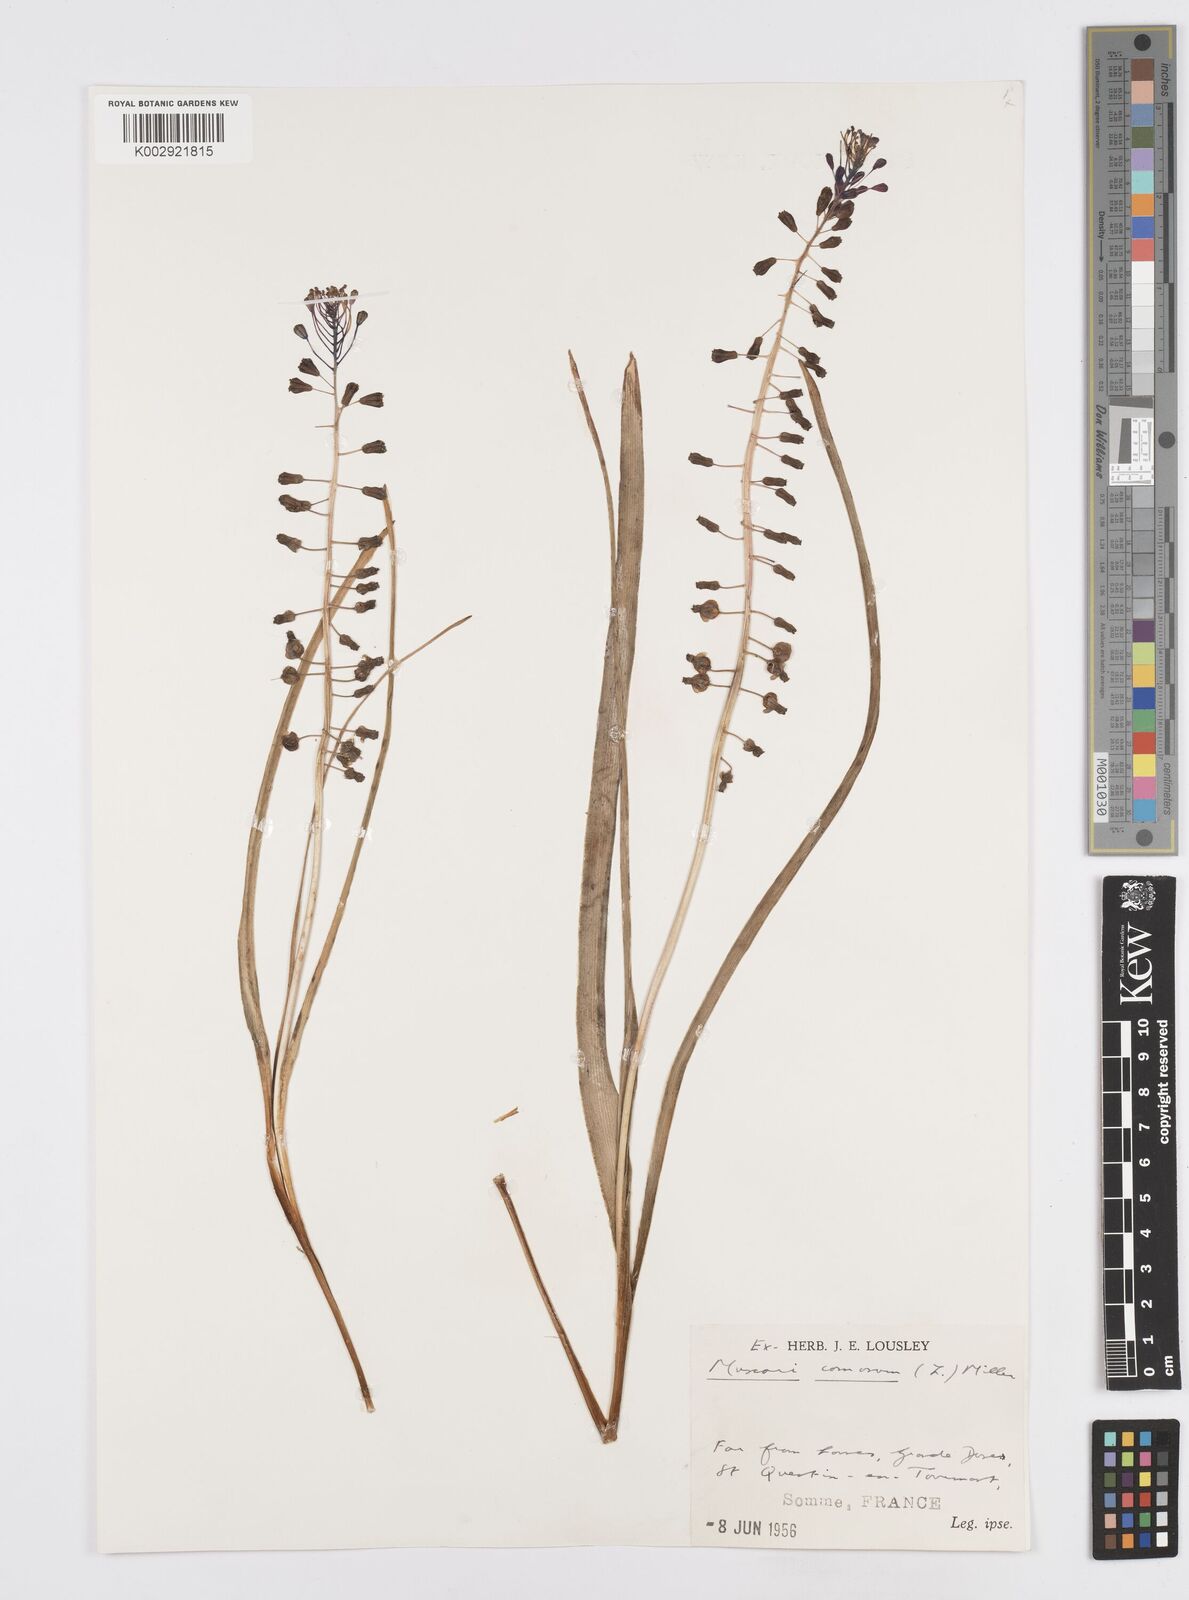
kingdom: Plantae
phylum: Tracheophyta
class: Liliopsida
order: Asparagales
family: Asparagaceae
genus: Muscari
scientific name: Muscari comosum
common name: Tassel hyacinth
